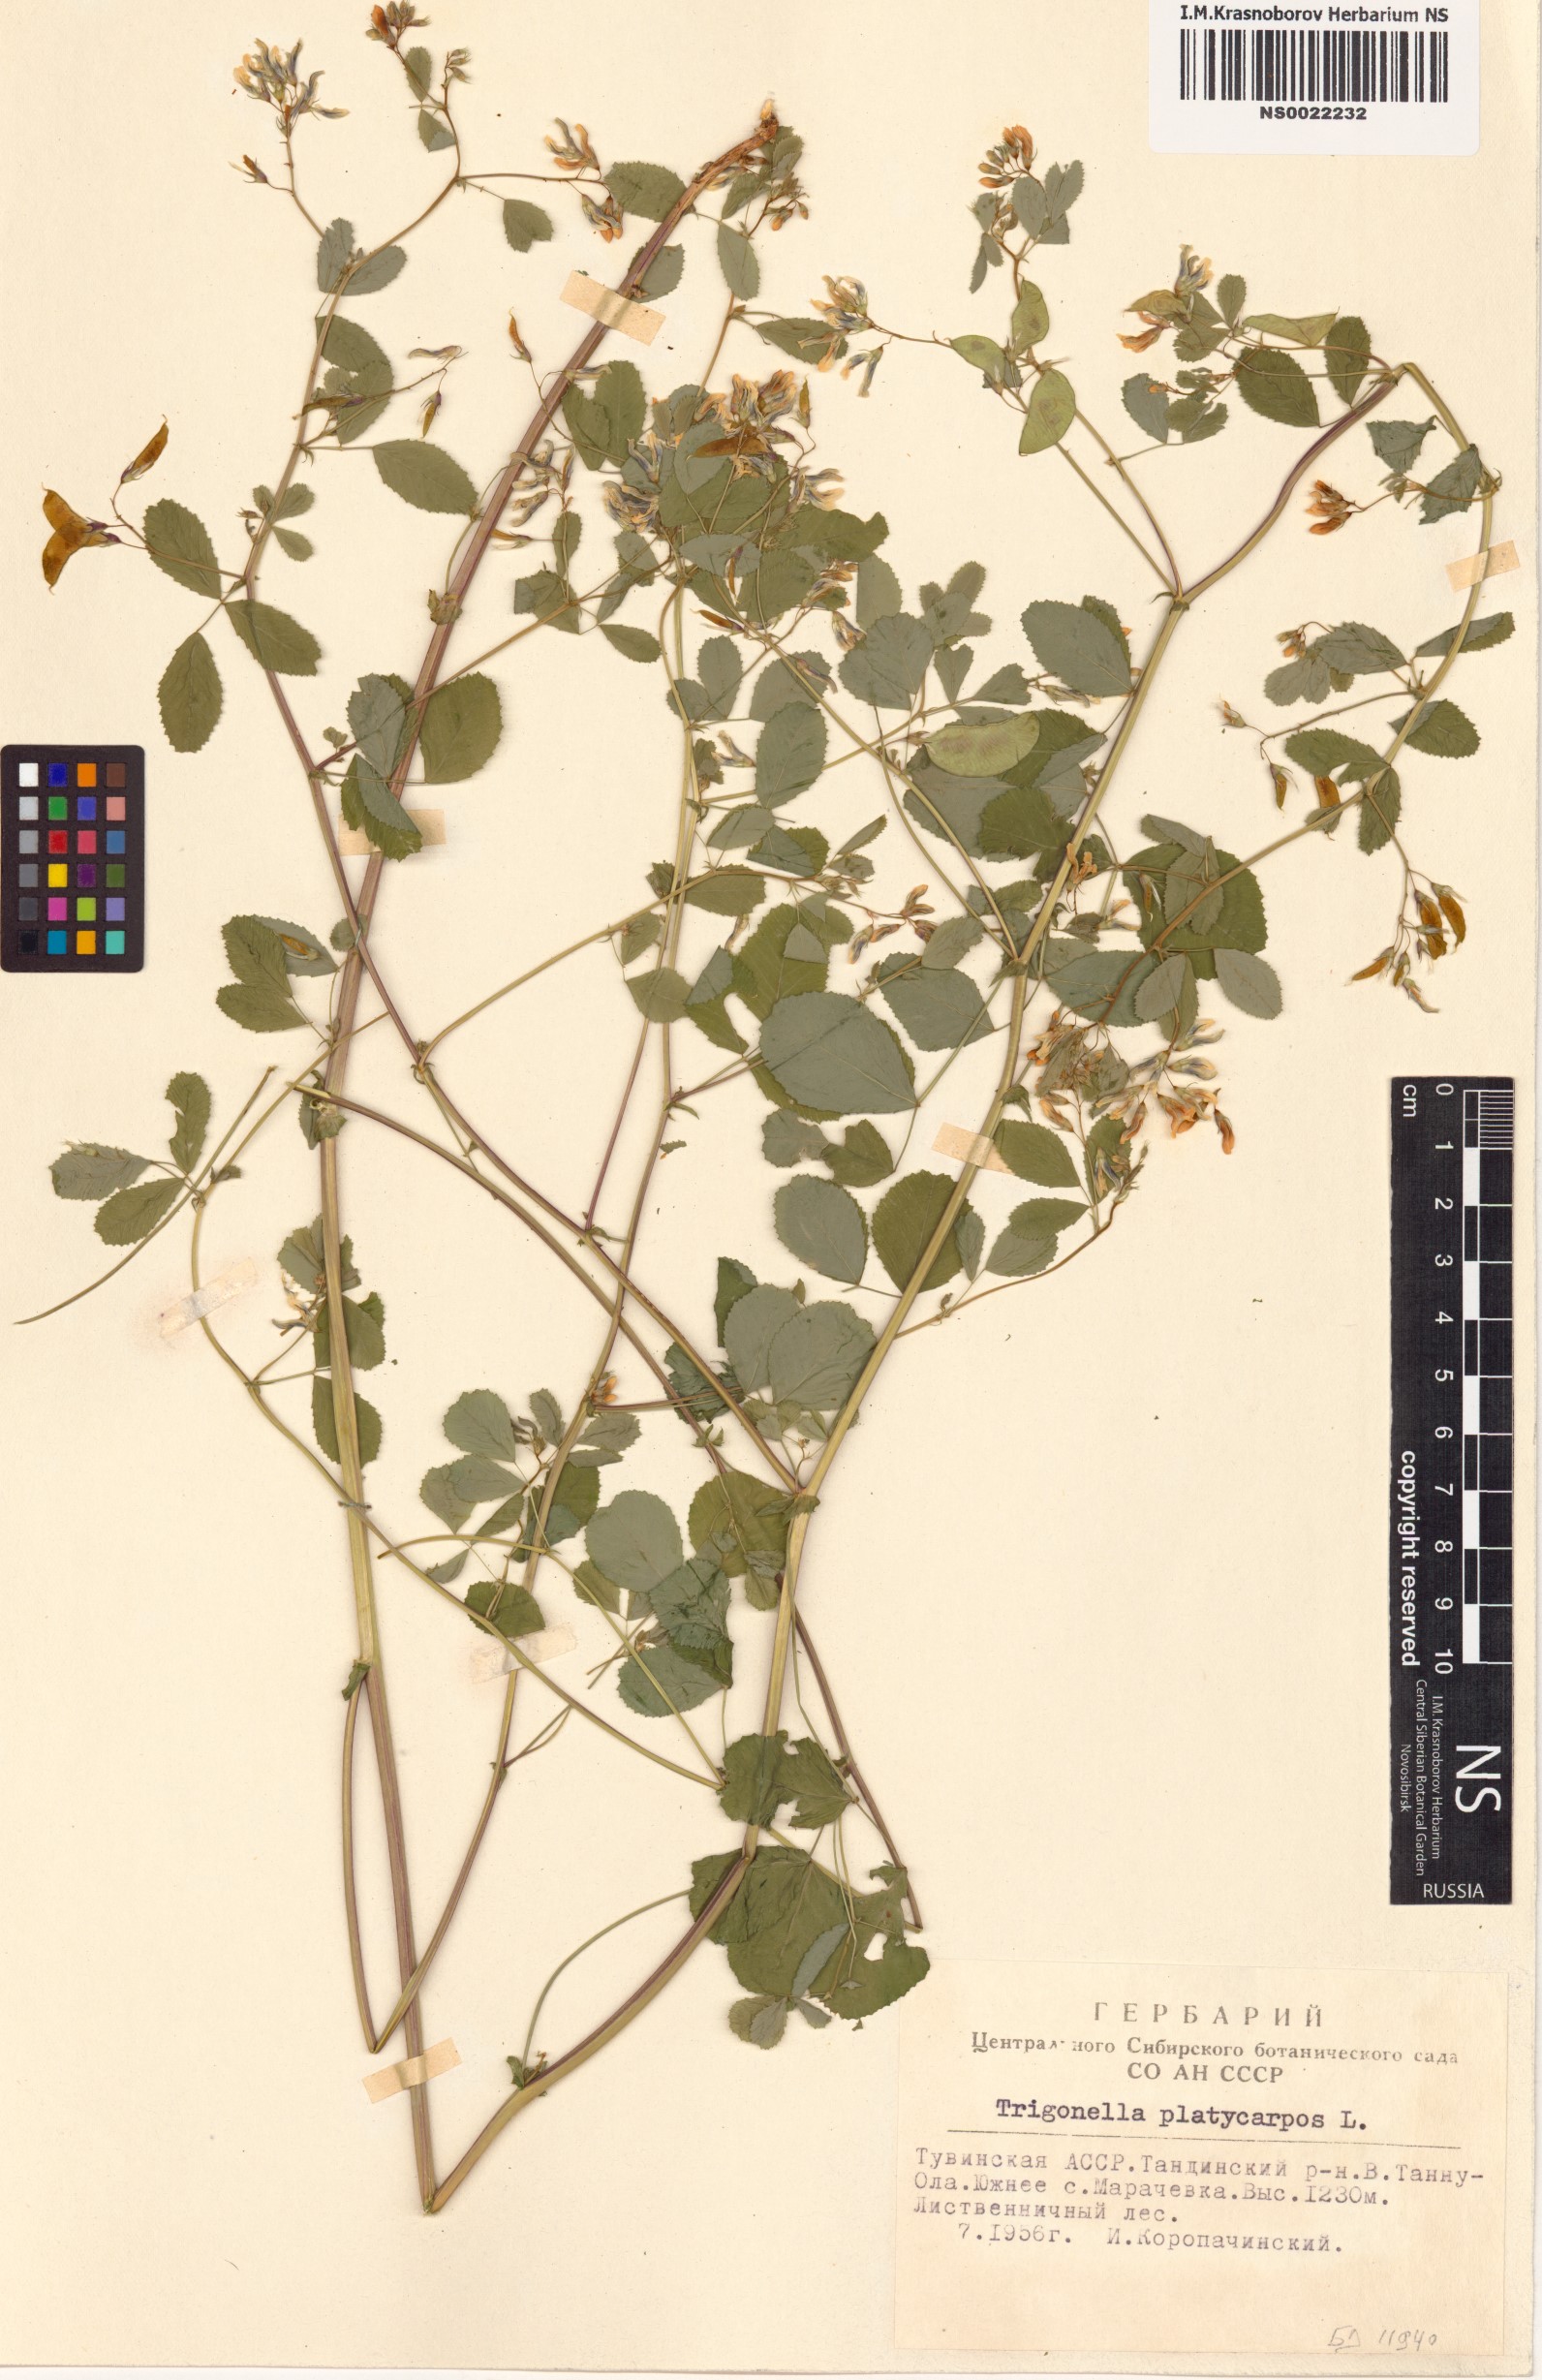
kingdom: Plantae
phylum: Tracheophyta
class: Magnoliopsida
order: Fabales
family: Fabaceae
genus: Medicago
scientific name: Medicago platycarpos
